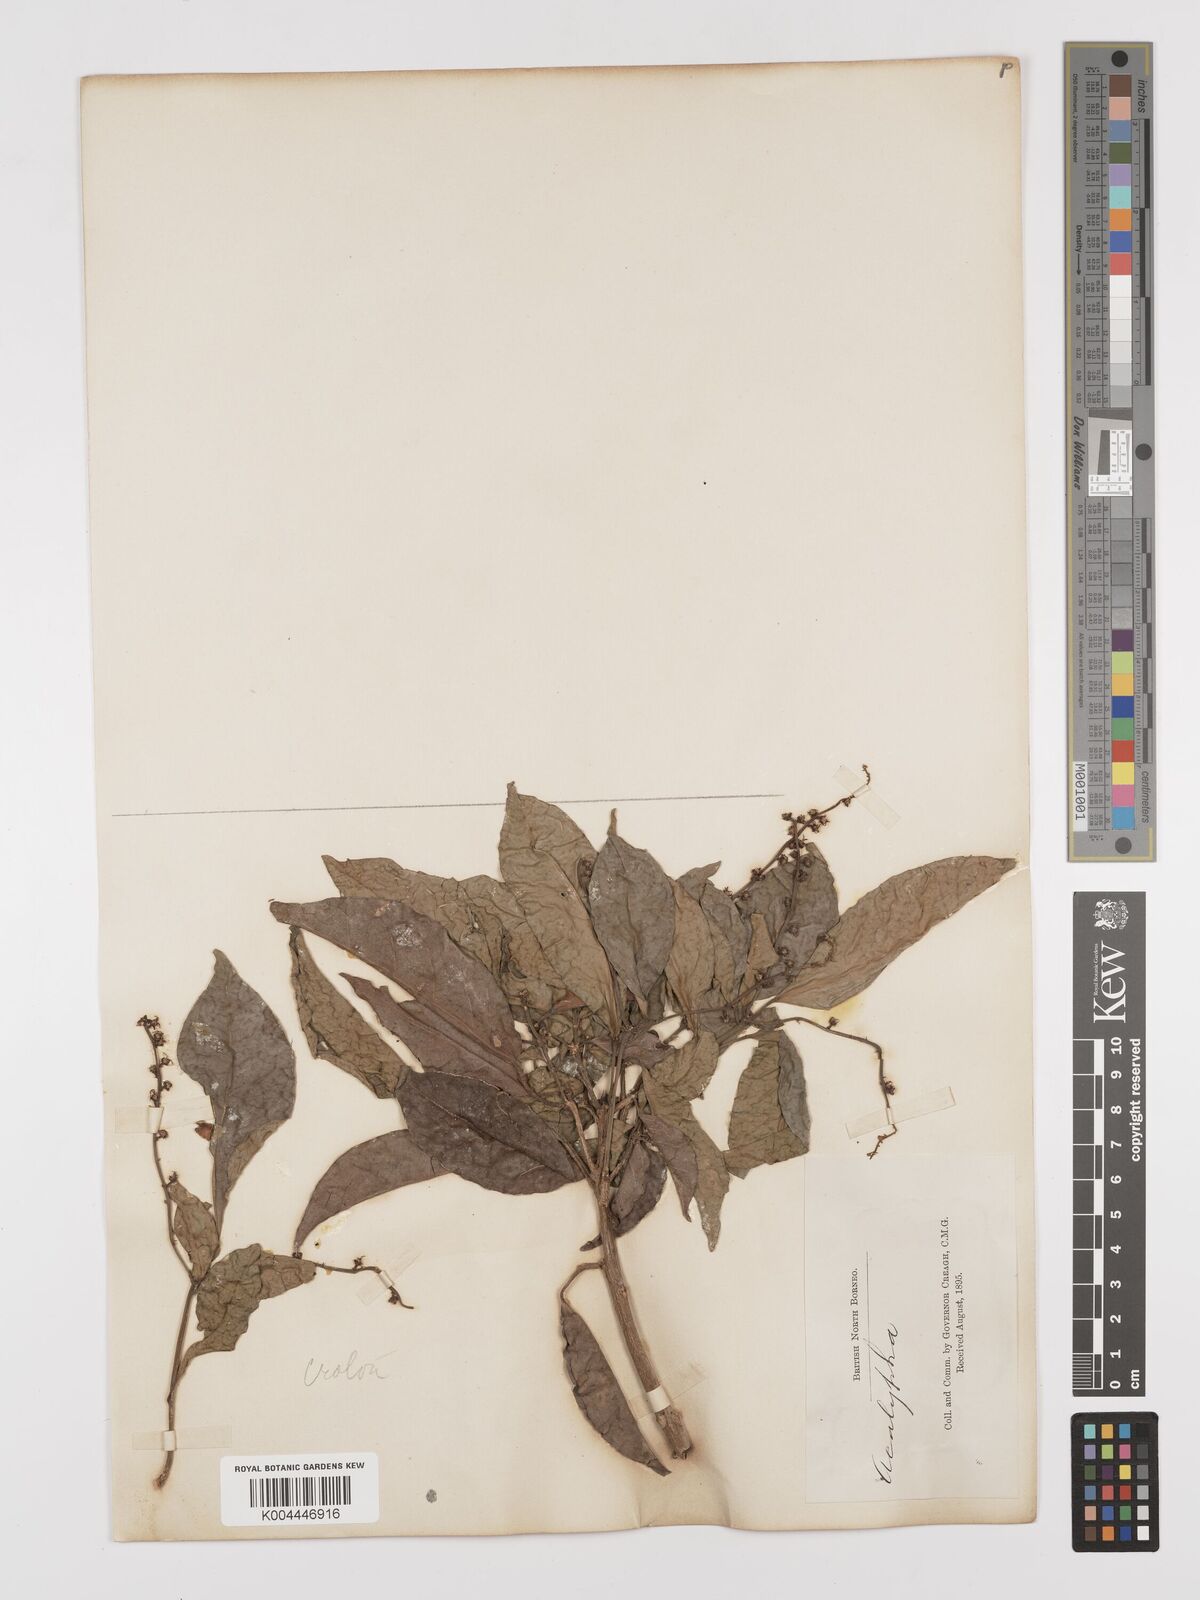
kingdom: Plantae
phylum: Tracheophyta
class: Magnoliopsida
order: Malpighiales
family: Euphorbiaceae
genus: Croton
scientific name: Croton oblongus
